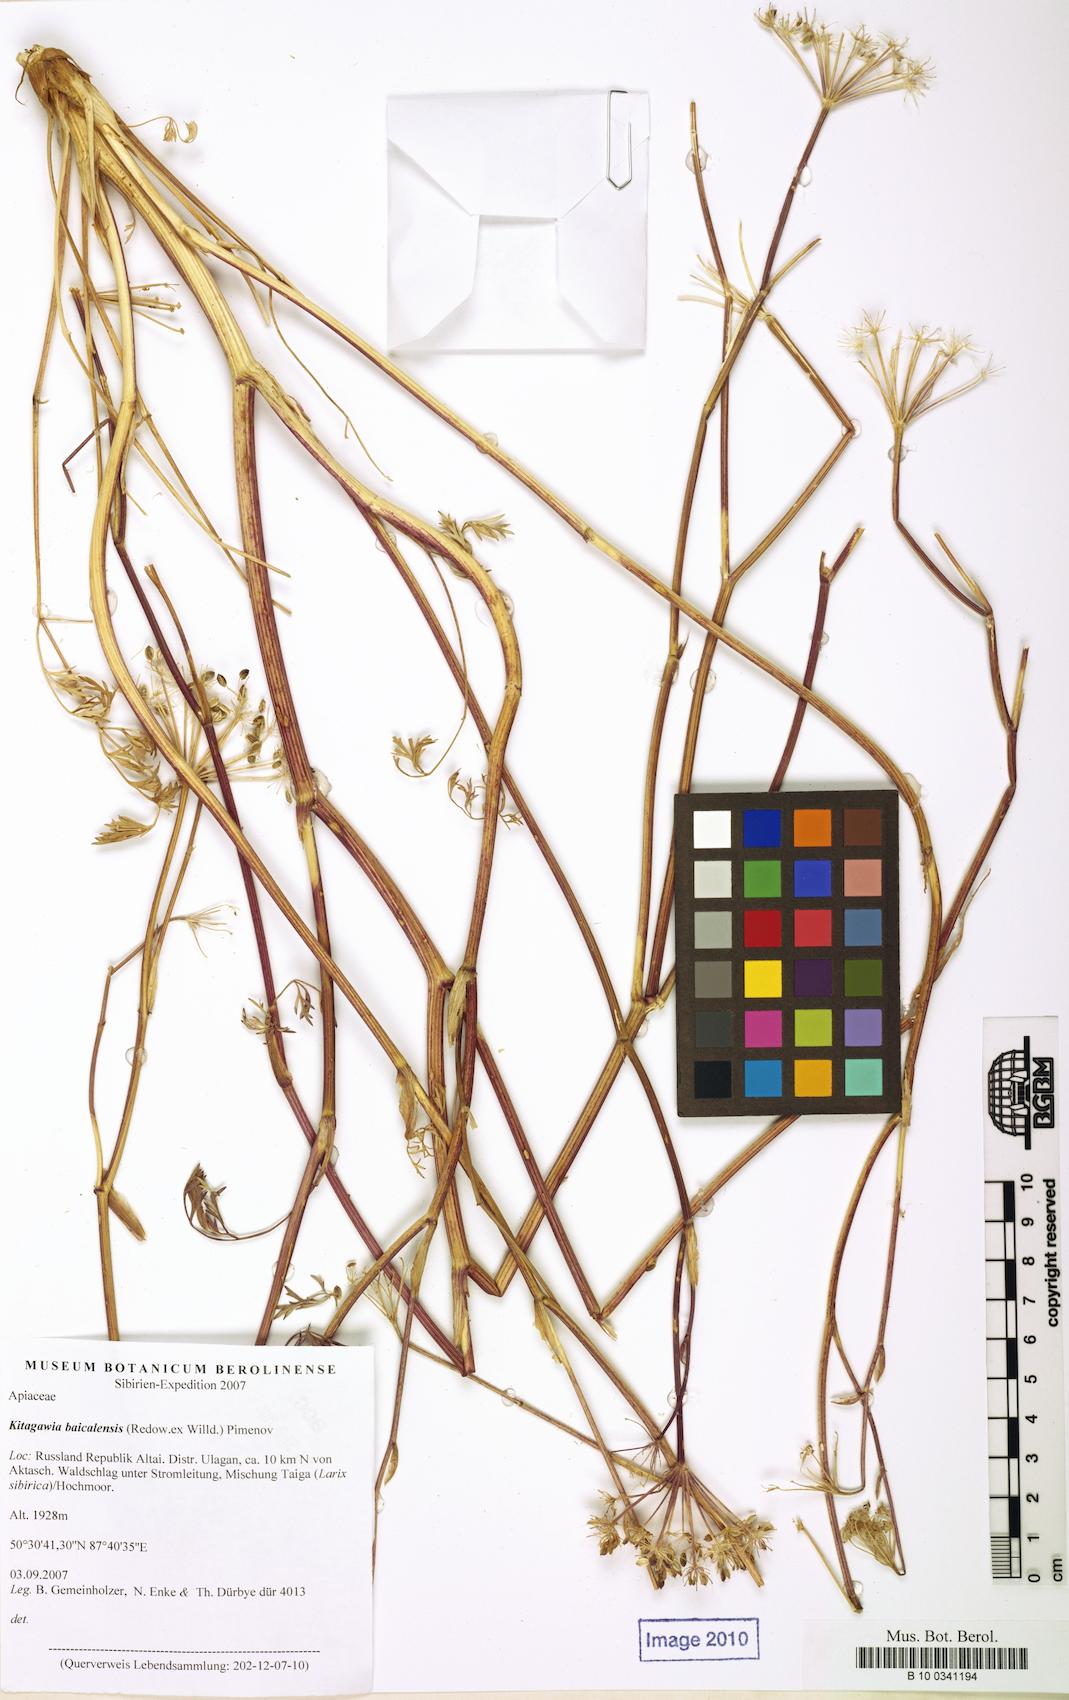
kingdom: Plantae
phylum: Tracheophyta
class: Magnoliopsida
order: Apiales
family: Apiaceae
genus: Kitagawia
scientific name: Kitagawia baicalensis
